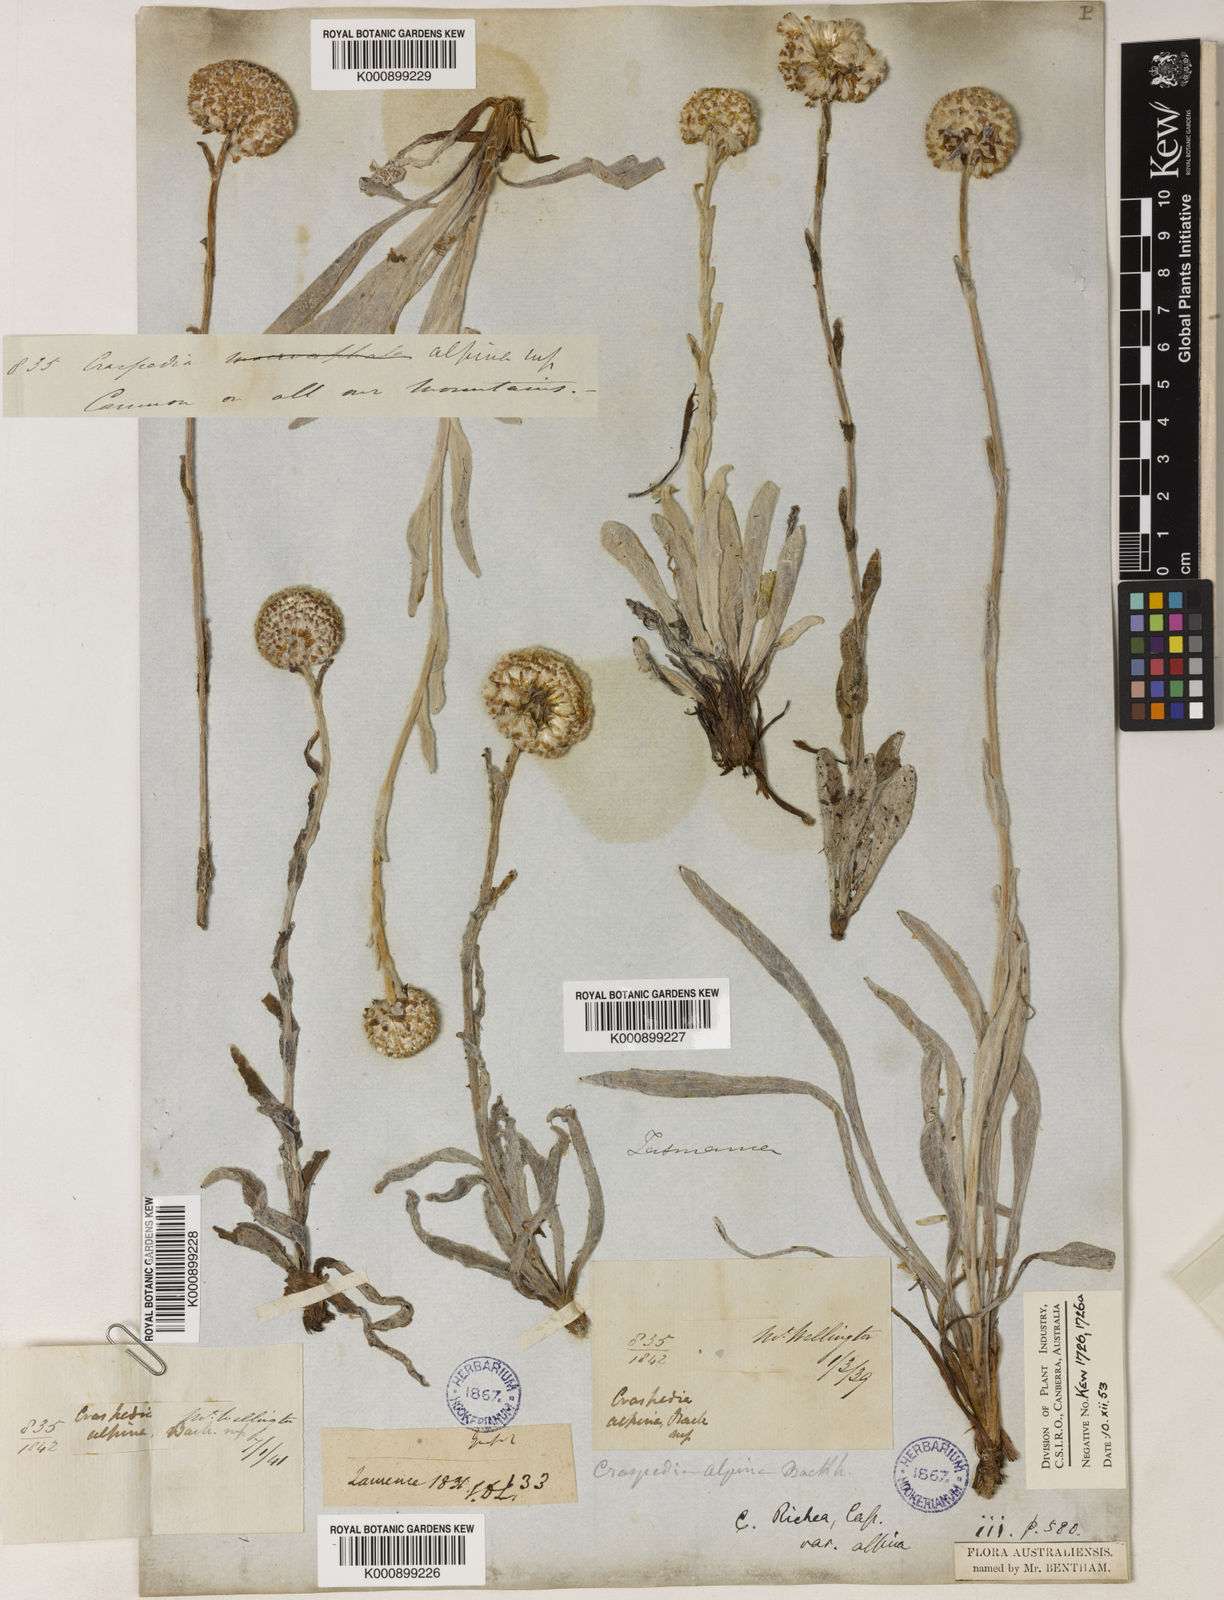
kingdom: Plantae
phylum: Tracheophyta
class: Magnoliopsida
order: Asterales
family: Asteraceae
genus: Craspedia
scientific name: Craspedia glauca
